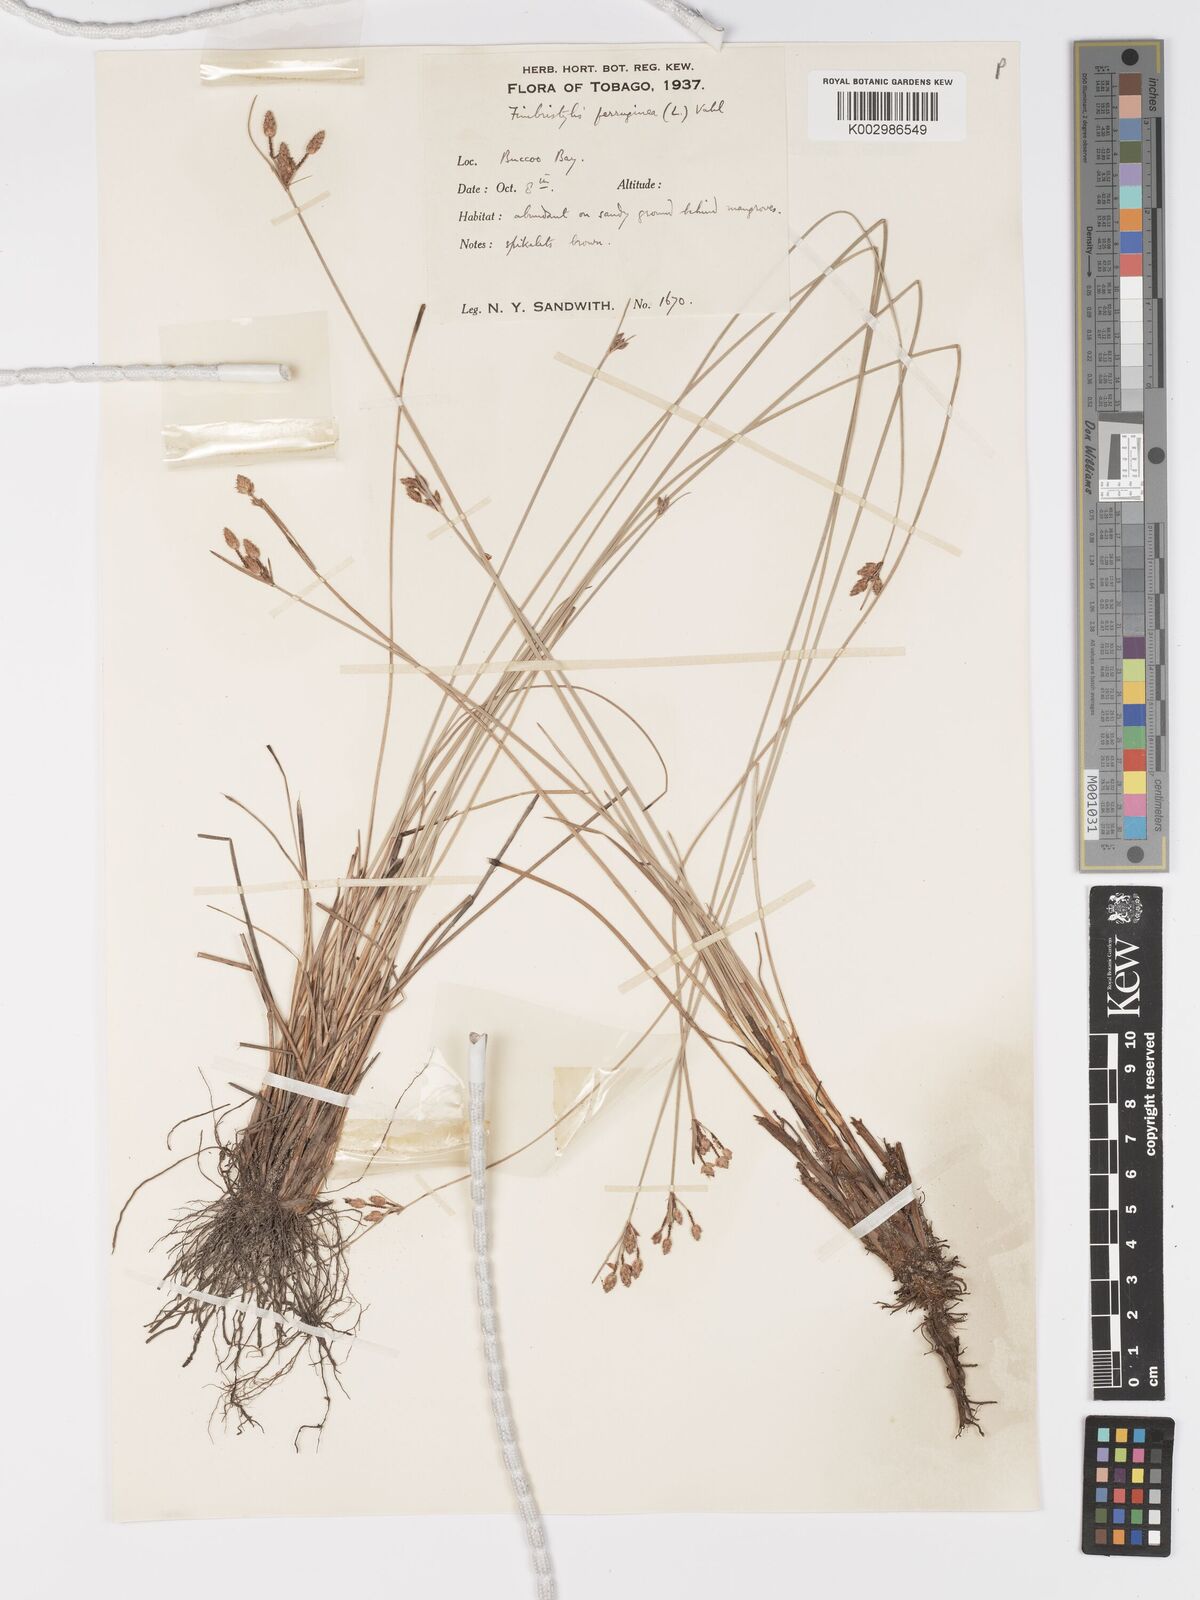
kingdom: Plantae
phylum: Tracheophyta
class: Liliopsida
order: Poales
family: Cyperaceae
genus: Fimbristylis
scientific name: Fimbristylis ferruginea
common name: West indian fimbry
